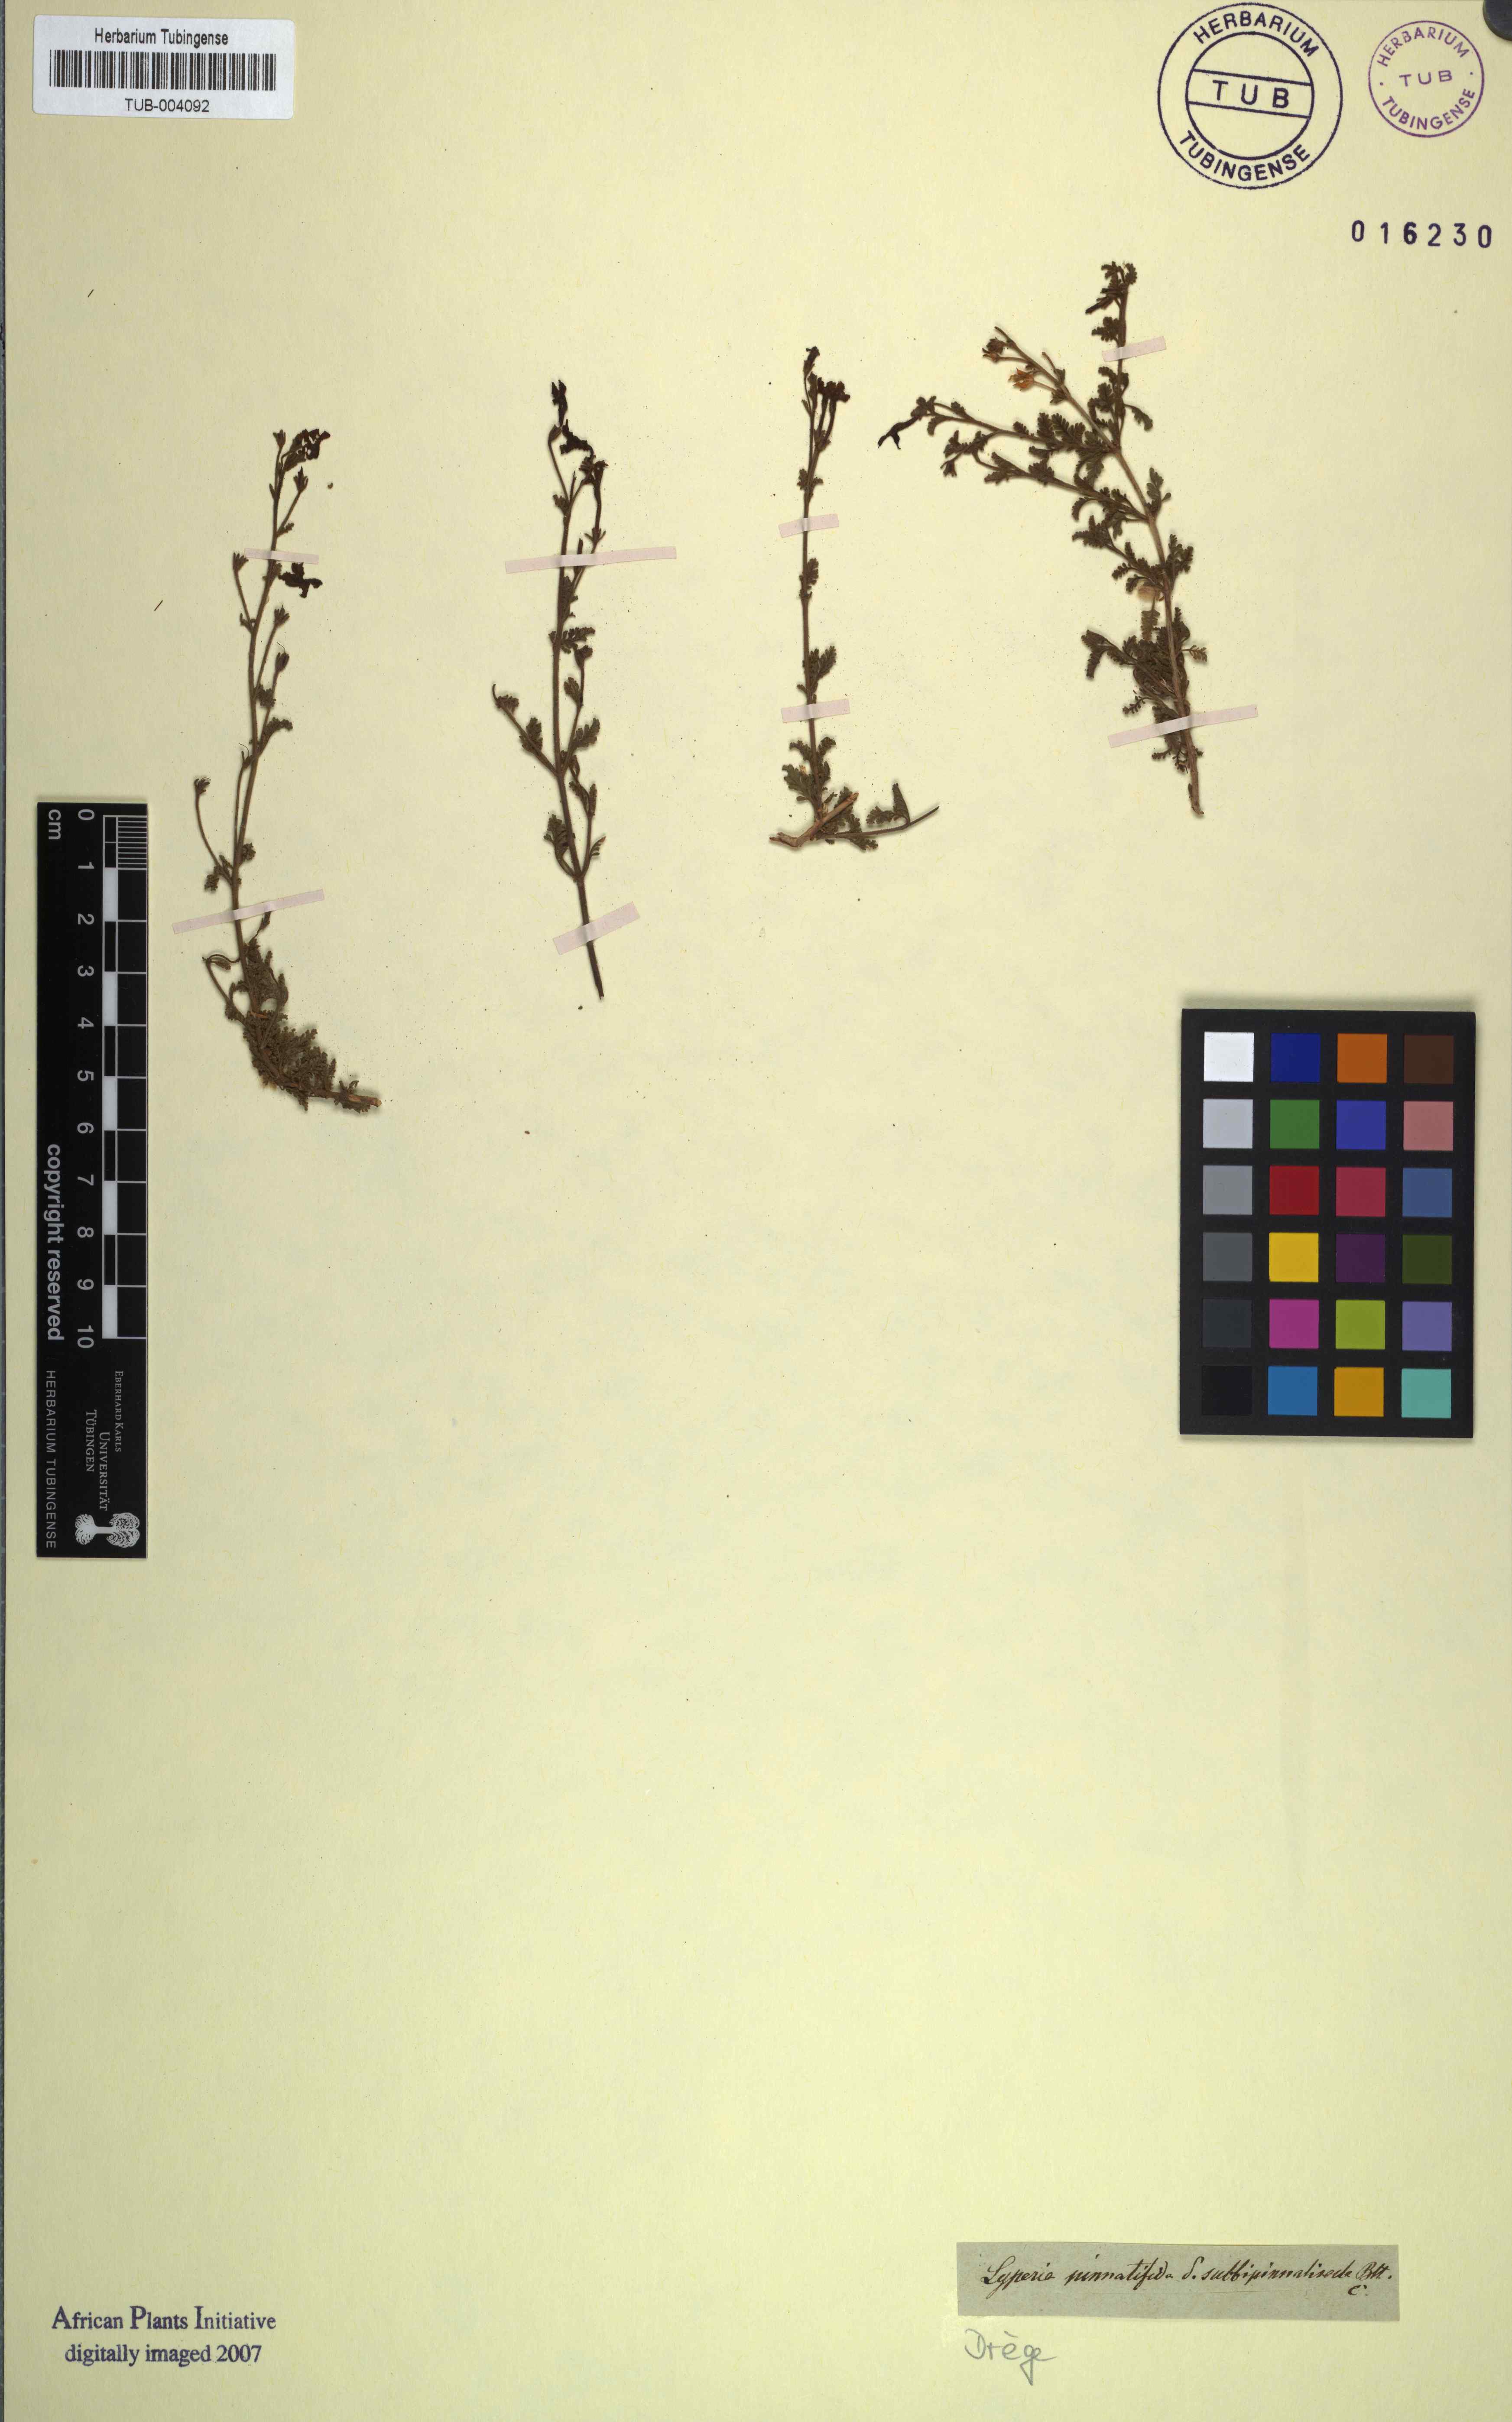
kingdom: Plantae
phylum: Tracheophyta
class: Magnoliopsida
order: Lamiales
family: Scrophulariaceae
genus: Jamesbrittenia
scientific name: Jamesbrittenia pinnatifida
